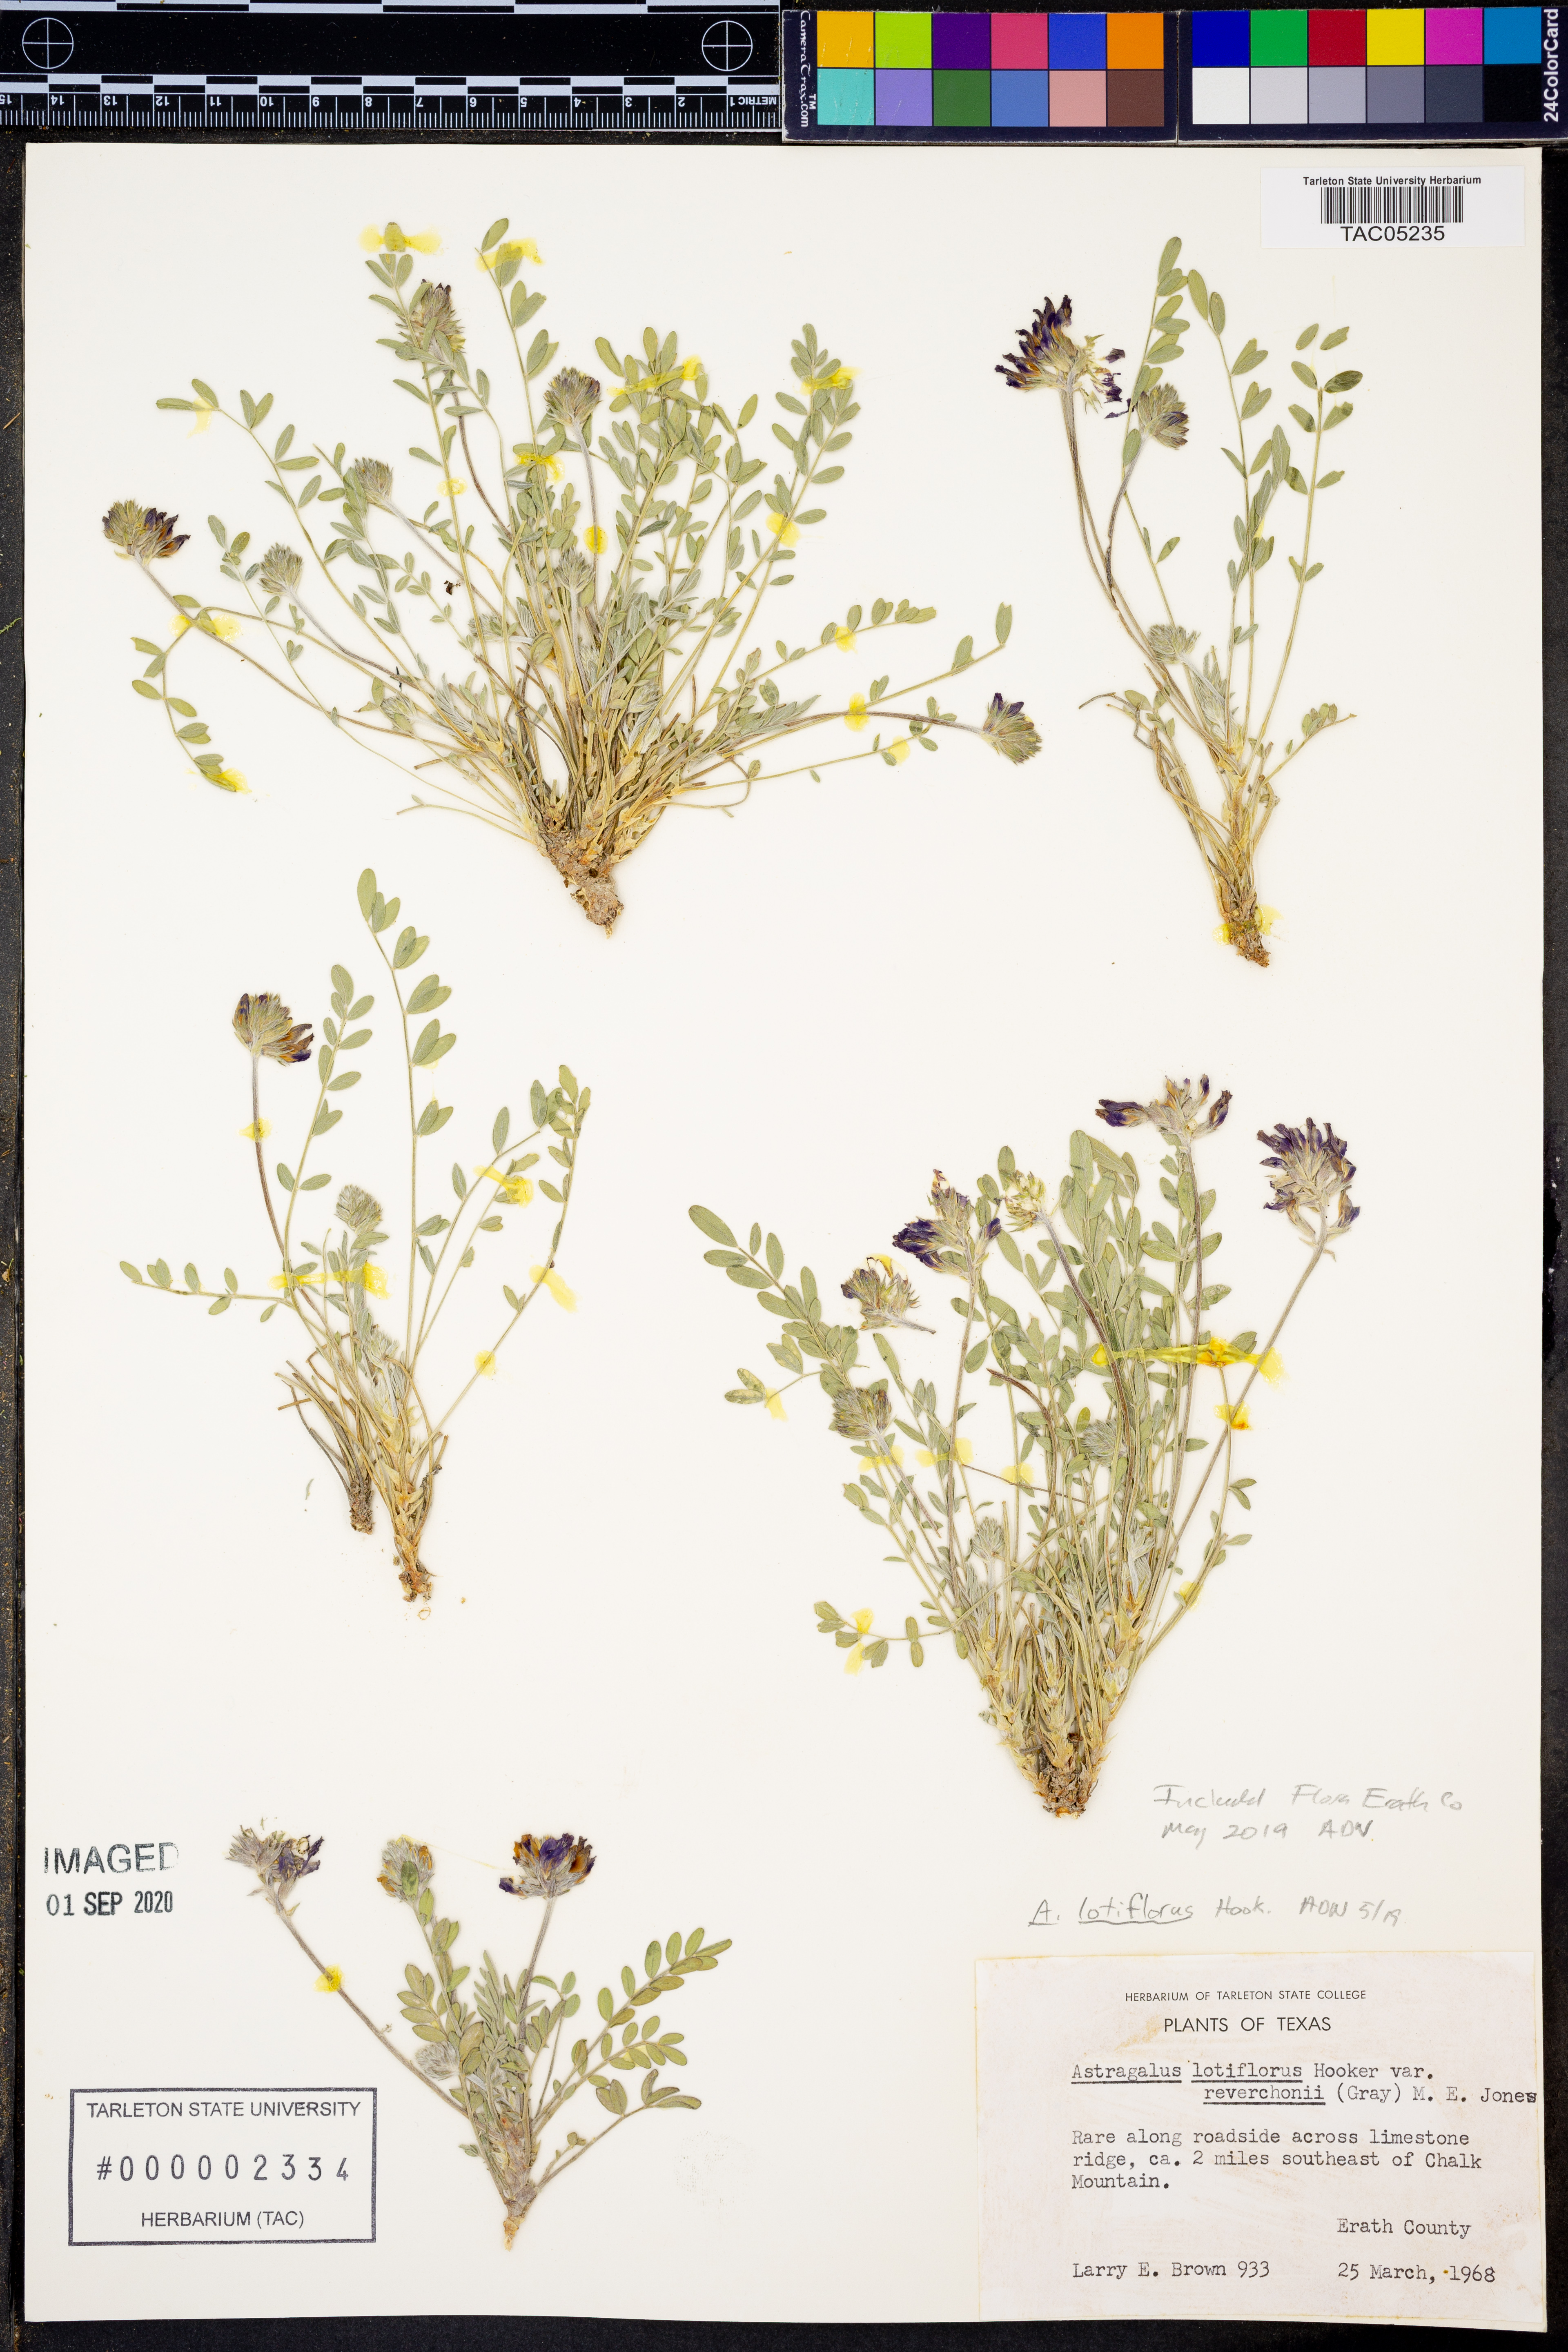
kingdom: Plantae
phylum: Tracheophyta
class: Magnoliopsida
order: Fabales
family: Fabaceae
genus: Astragalus
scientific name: Astragalus lotiflorus
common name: Lotus milk-vetch
